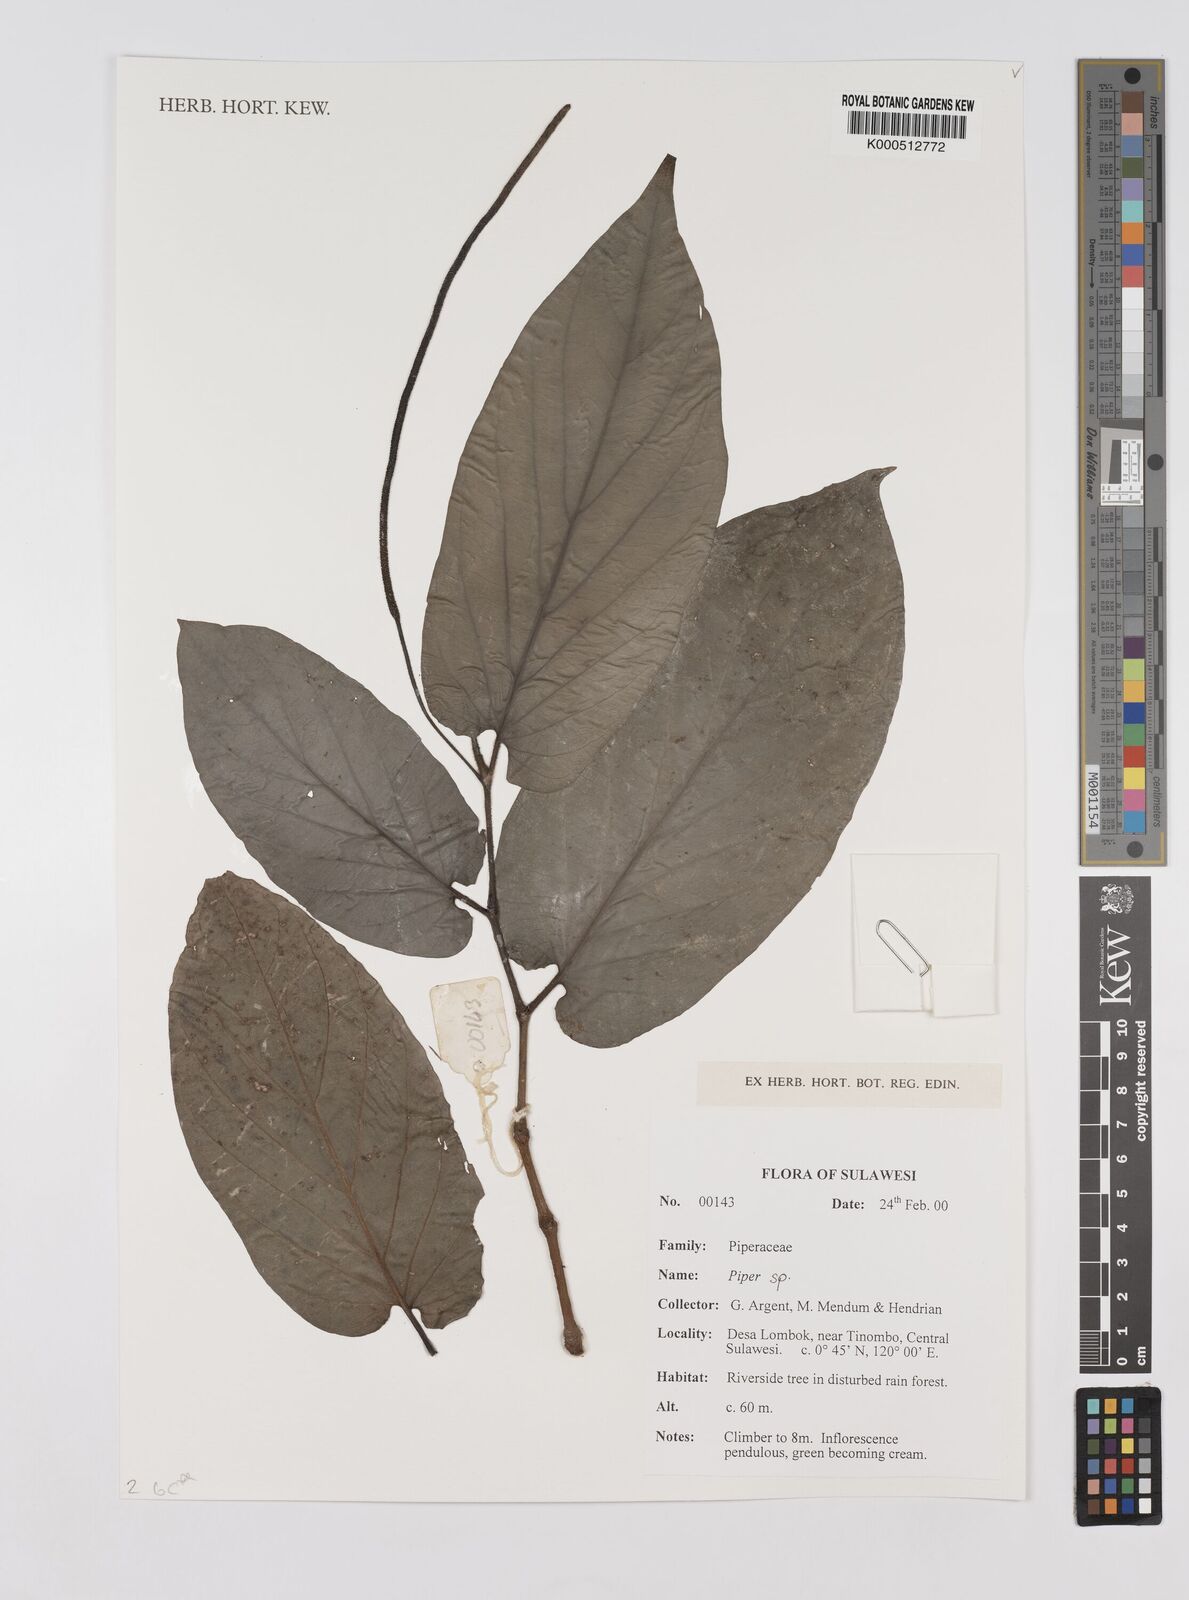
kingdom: Plantae
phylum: Tracheophyta
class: Magnoliopsida
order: Piperales
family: Piperaceae
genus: Piper
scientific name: Piper
